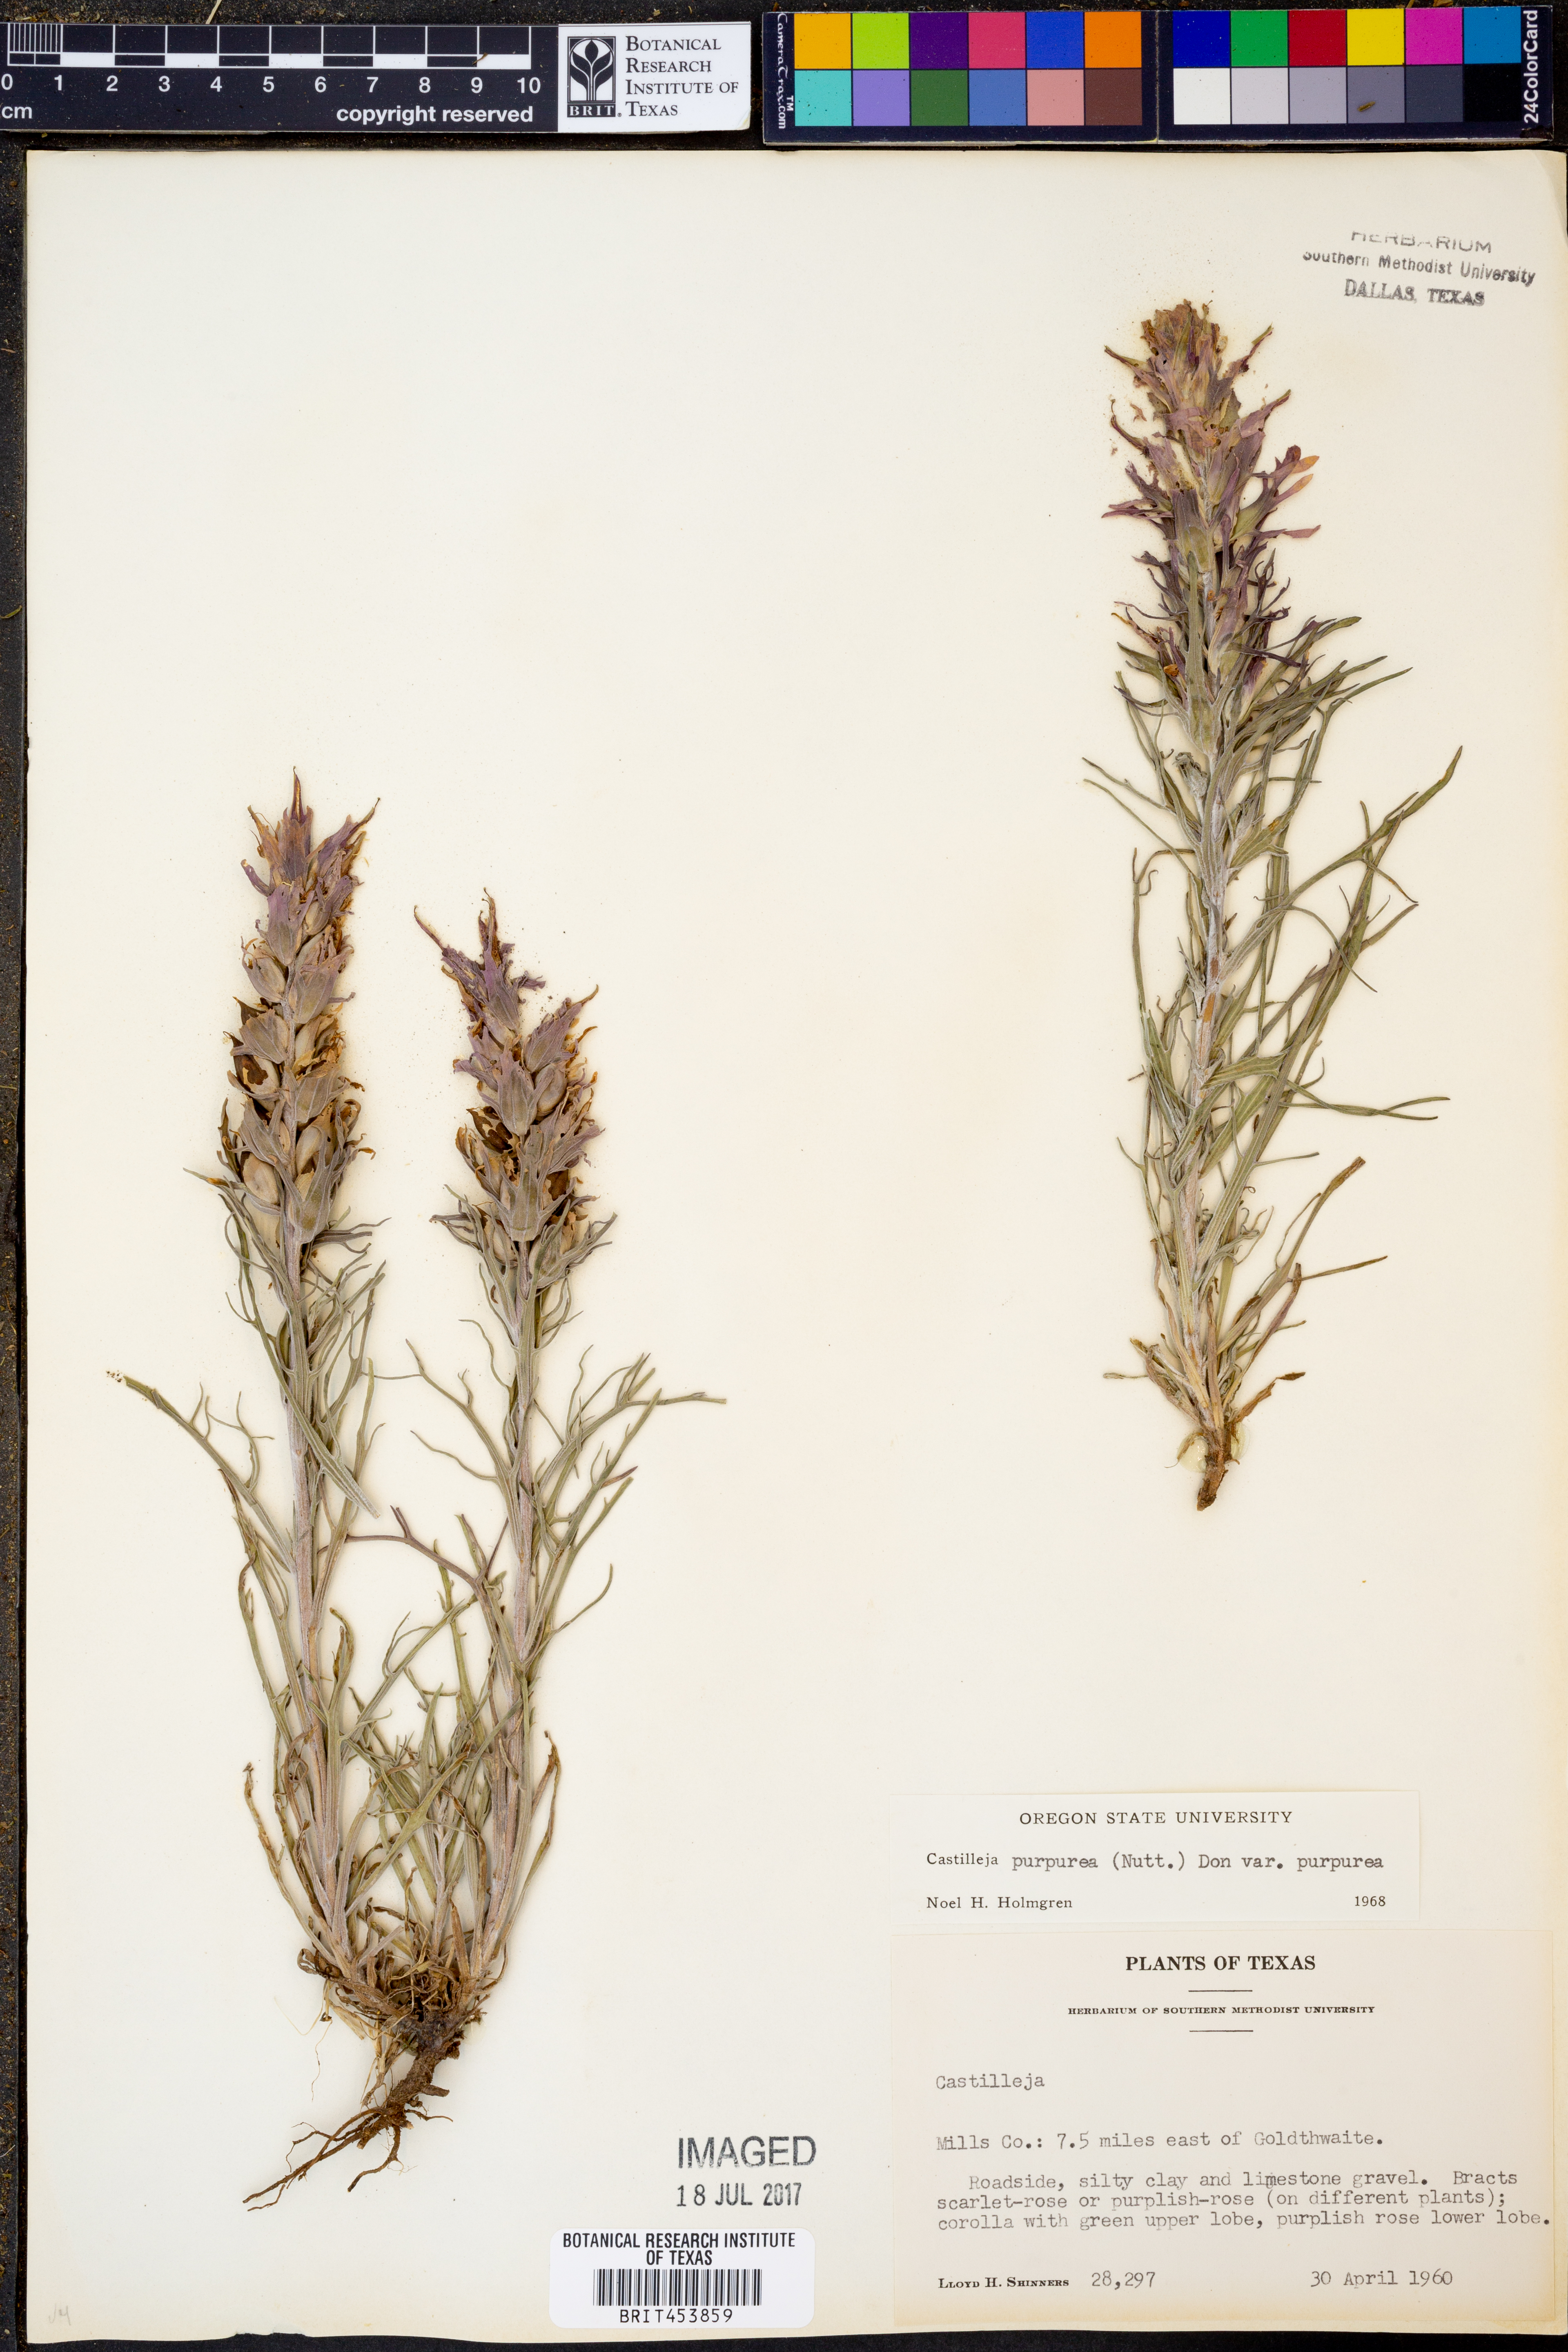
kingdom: Plantae
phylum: Tracheophyta
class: Magnoliopsida
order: Lamiales
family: Orobanchaceae
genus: Castilleja
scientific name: Castilleja purpurea
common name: Plains paintbrush
